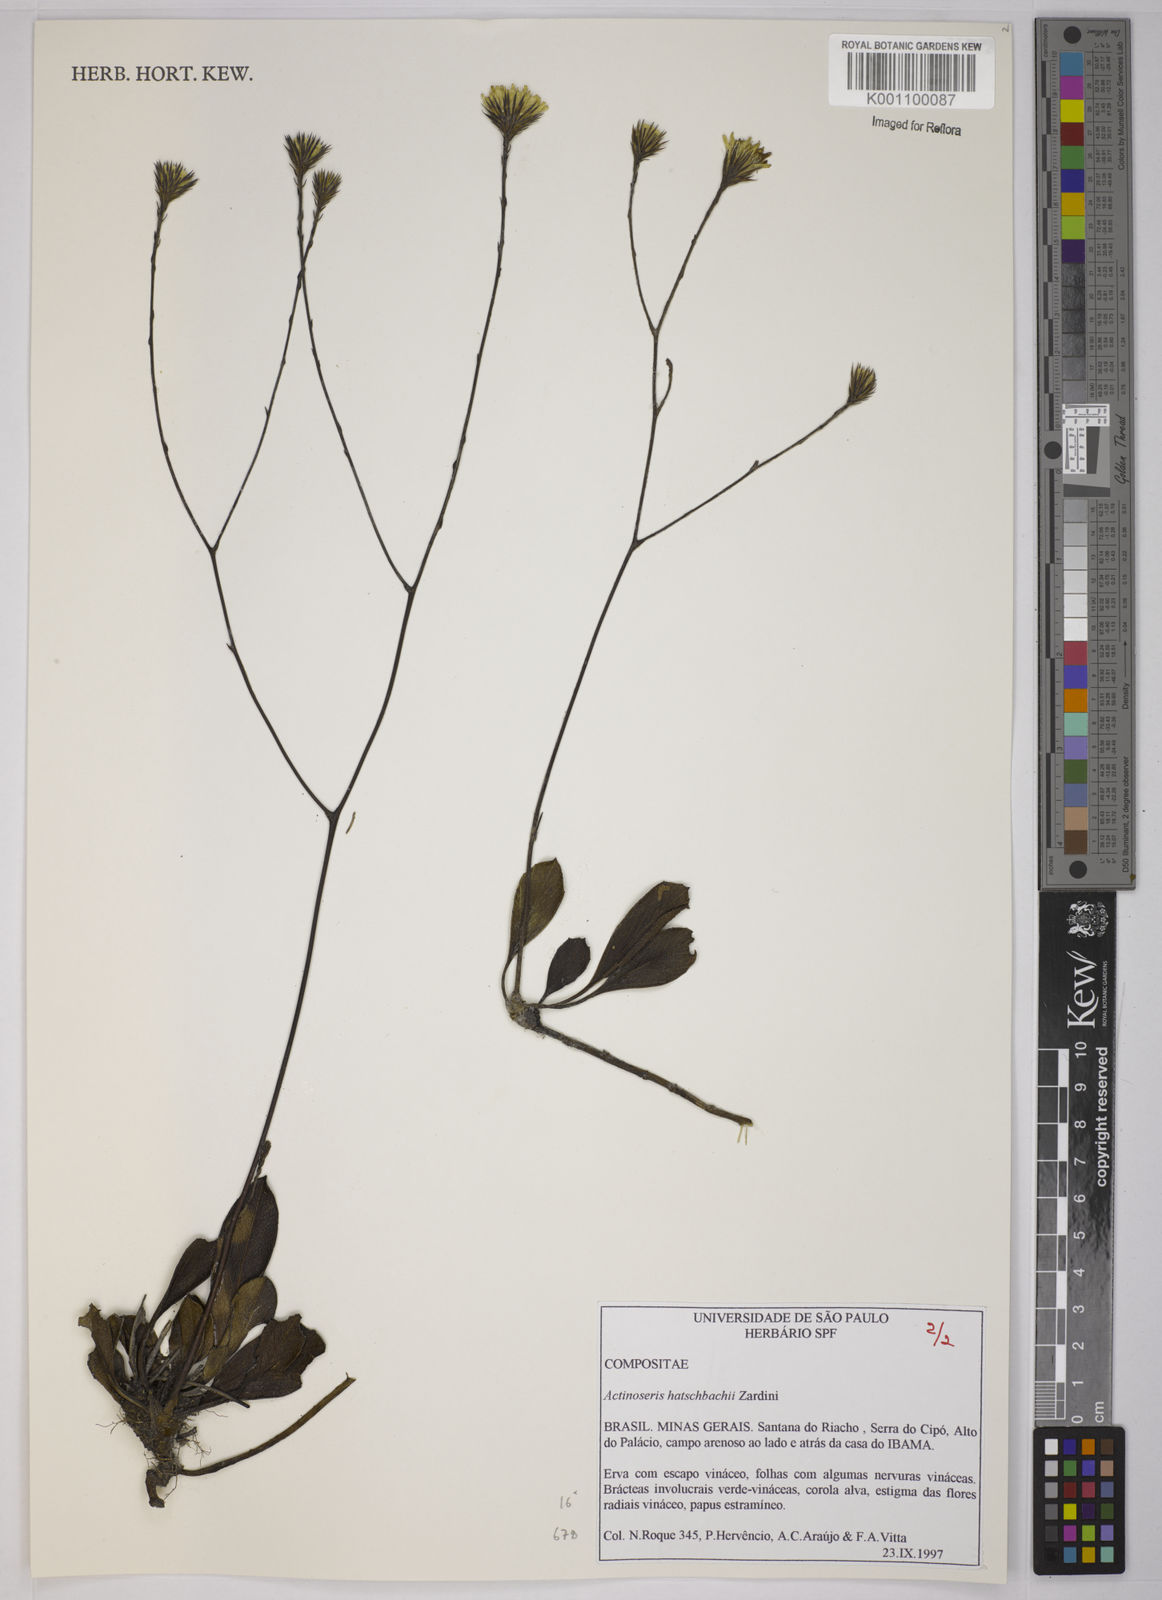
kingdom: Plantae
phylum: Tracheophyta
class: Magnoliopsida
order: Asterales
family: Asteraceae
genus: Richterago
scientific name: Richterago hatschbachii
